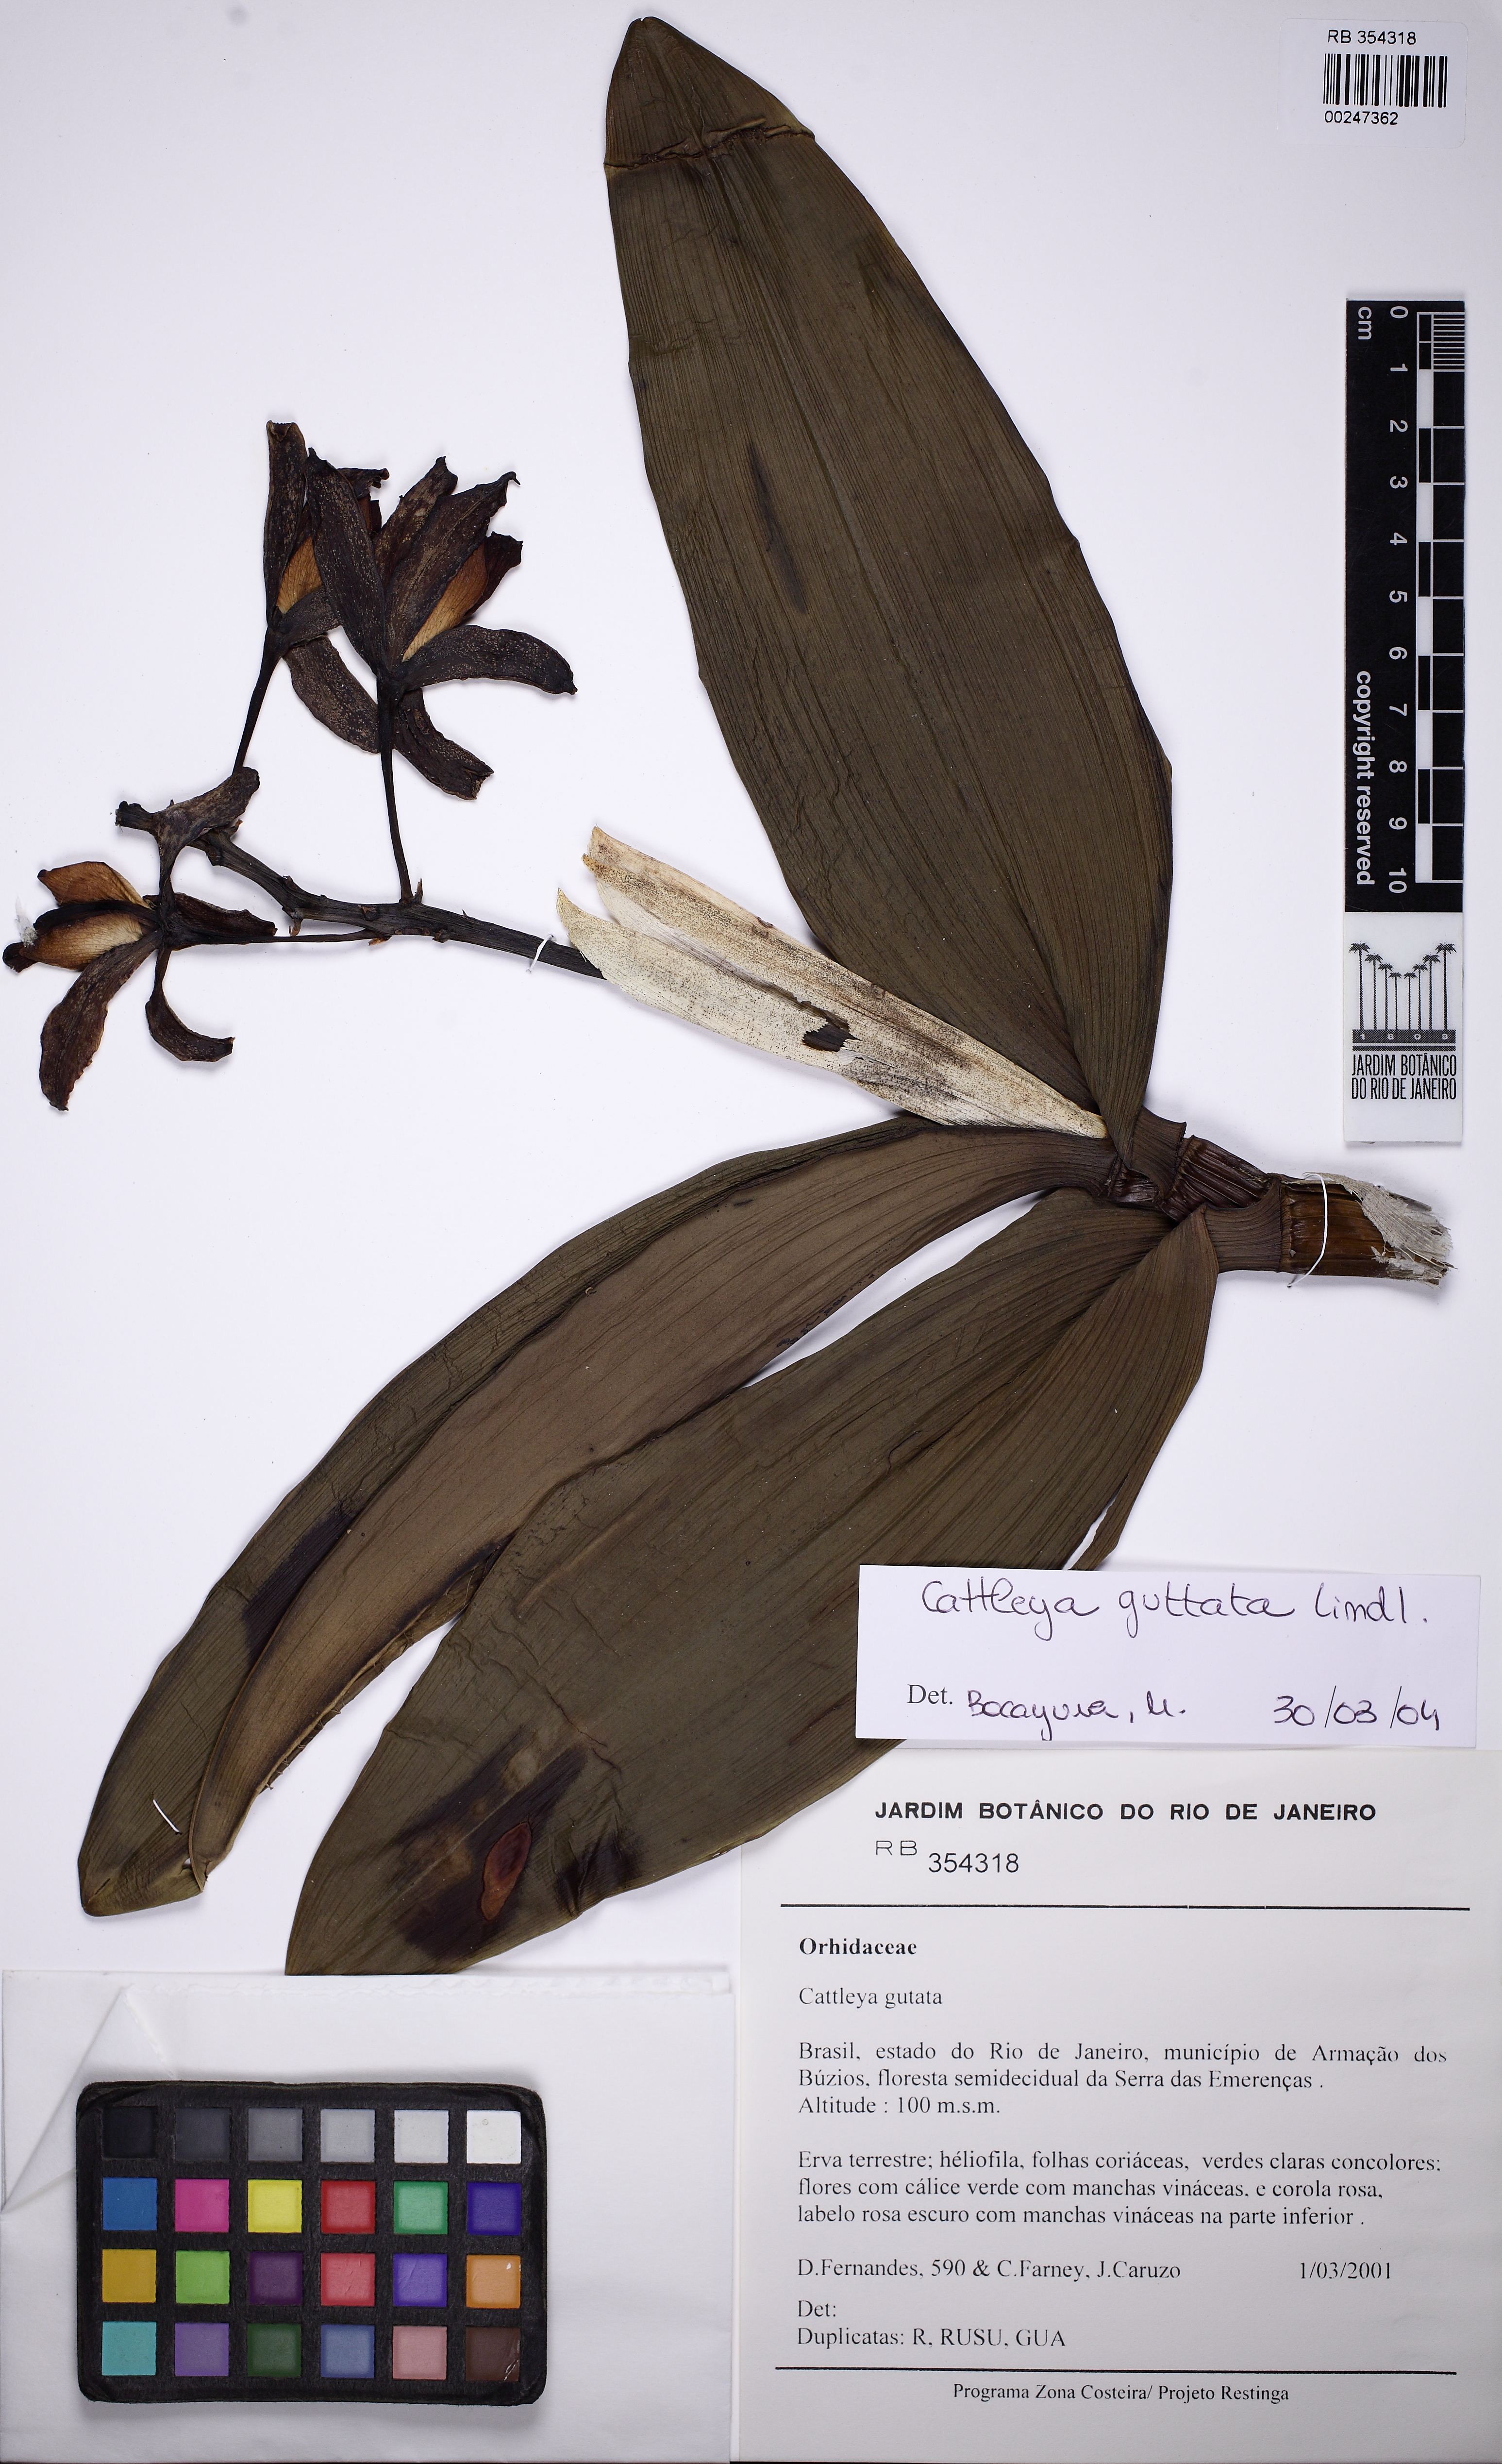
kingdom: Plantae
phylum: Tracheophyta
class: Liliopsida
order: Asparagales
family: Orchidaceae
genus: Cattleya
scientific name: Cattleya guttata
